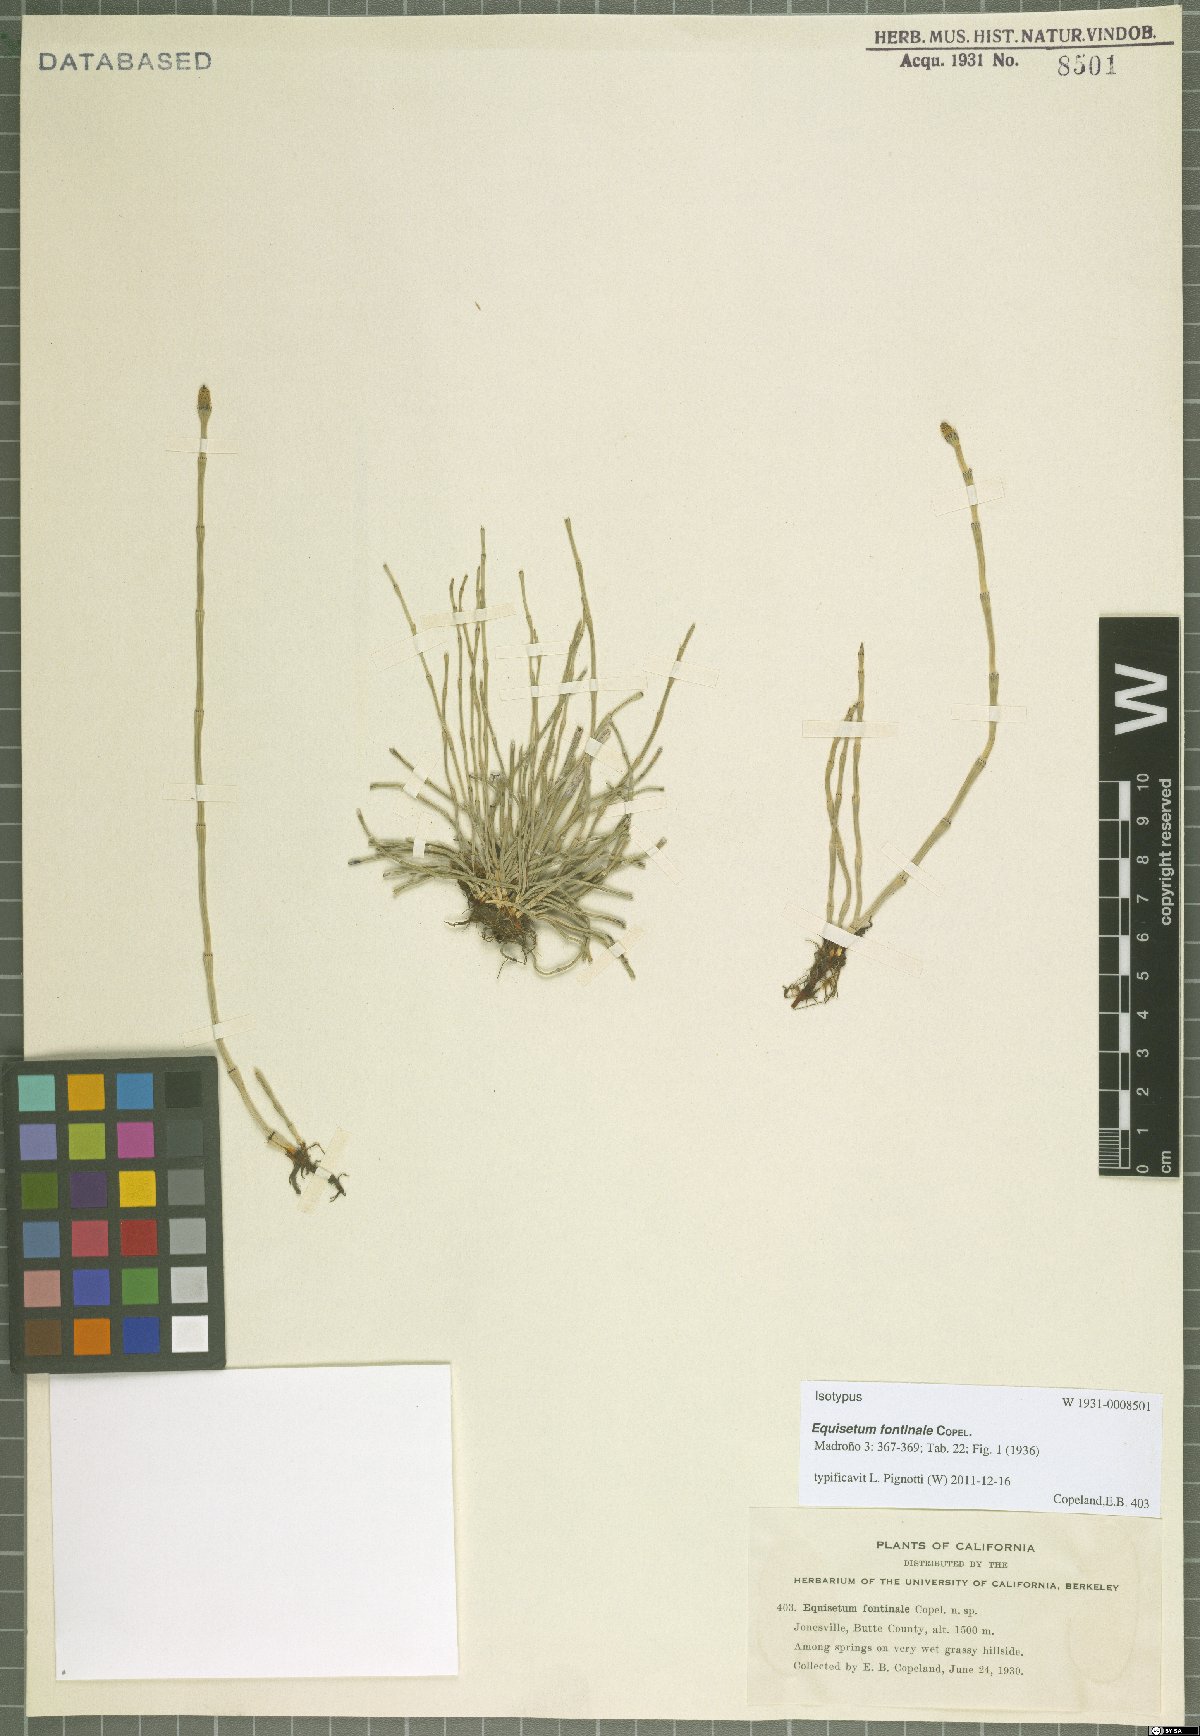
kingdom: Plantae
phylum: Tracheophyta
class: Polypodiopsida
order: Equisetales
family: Equisetaceae
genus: Equisetum
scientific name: Equisetum laevigatum
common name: Smooth scouring-rush
